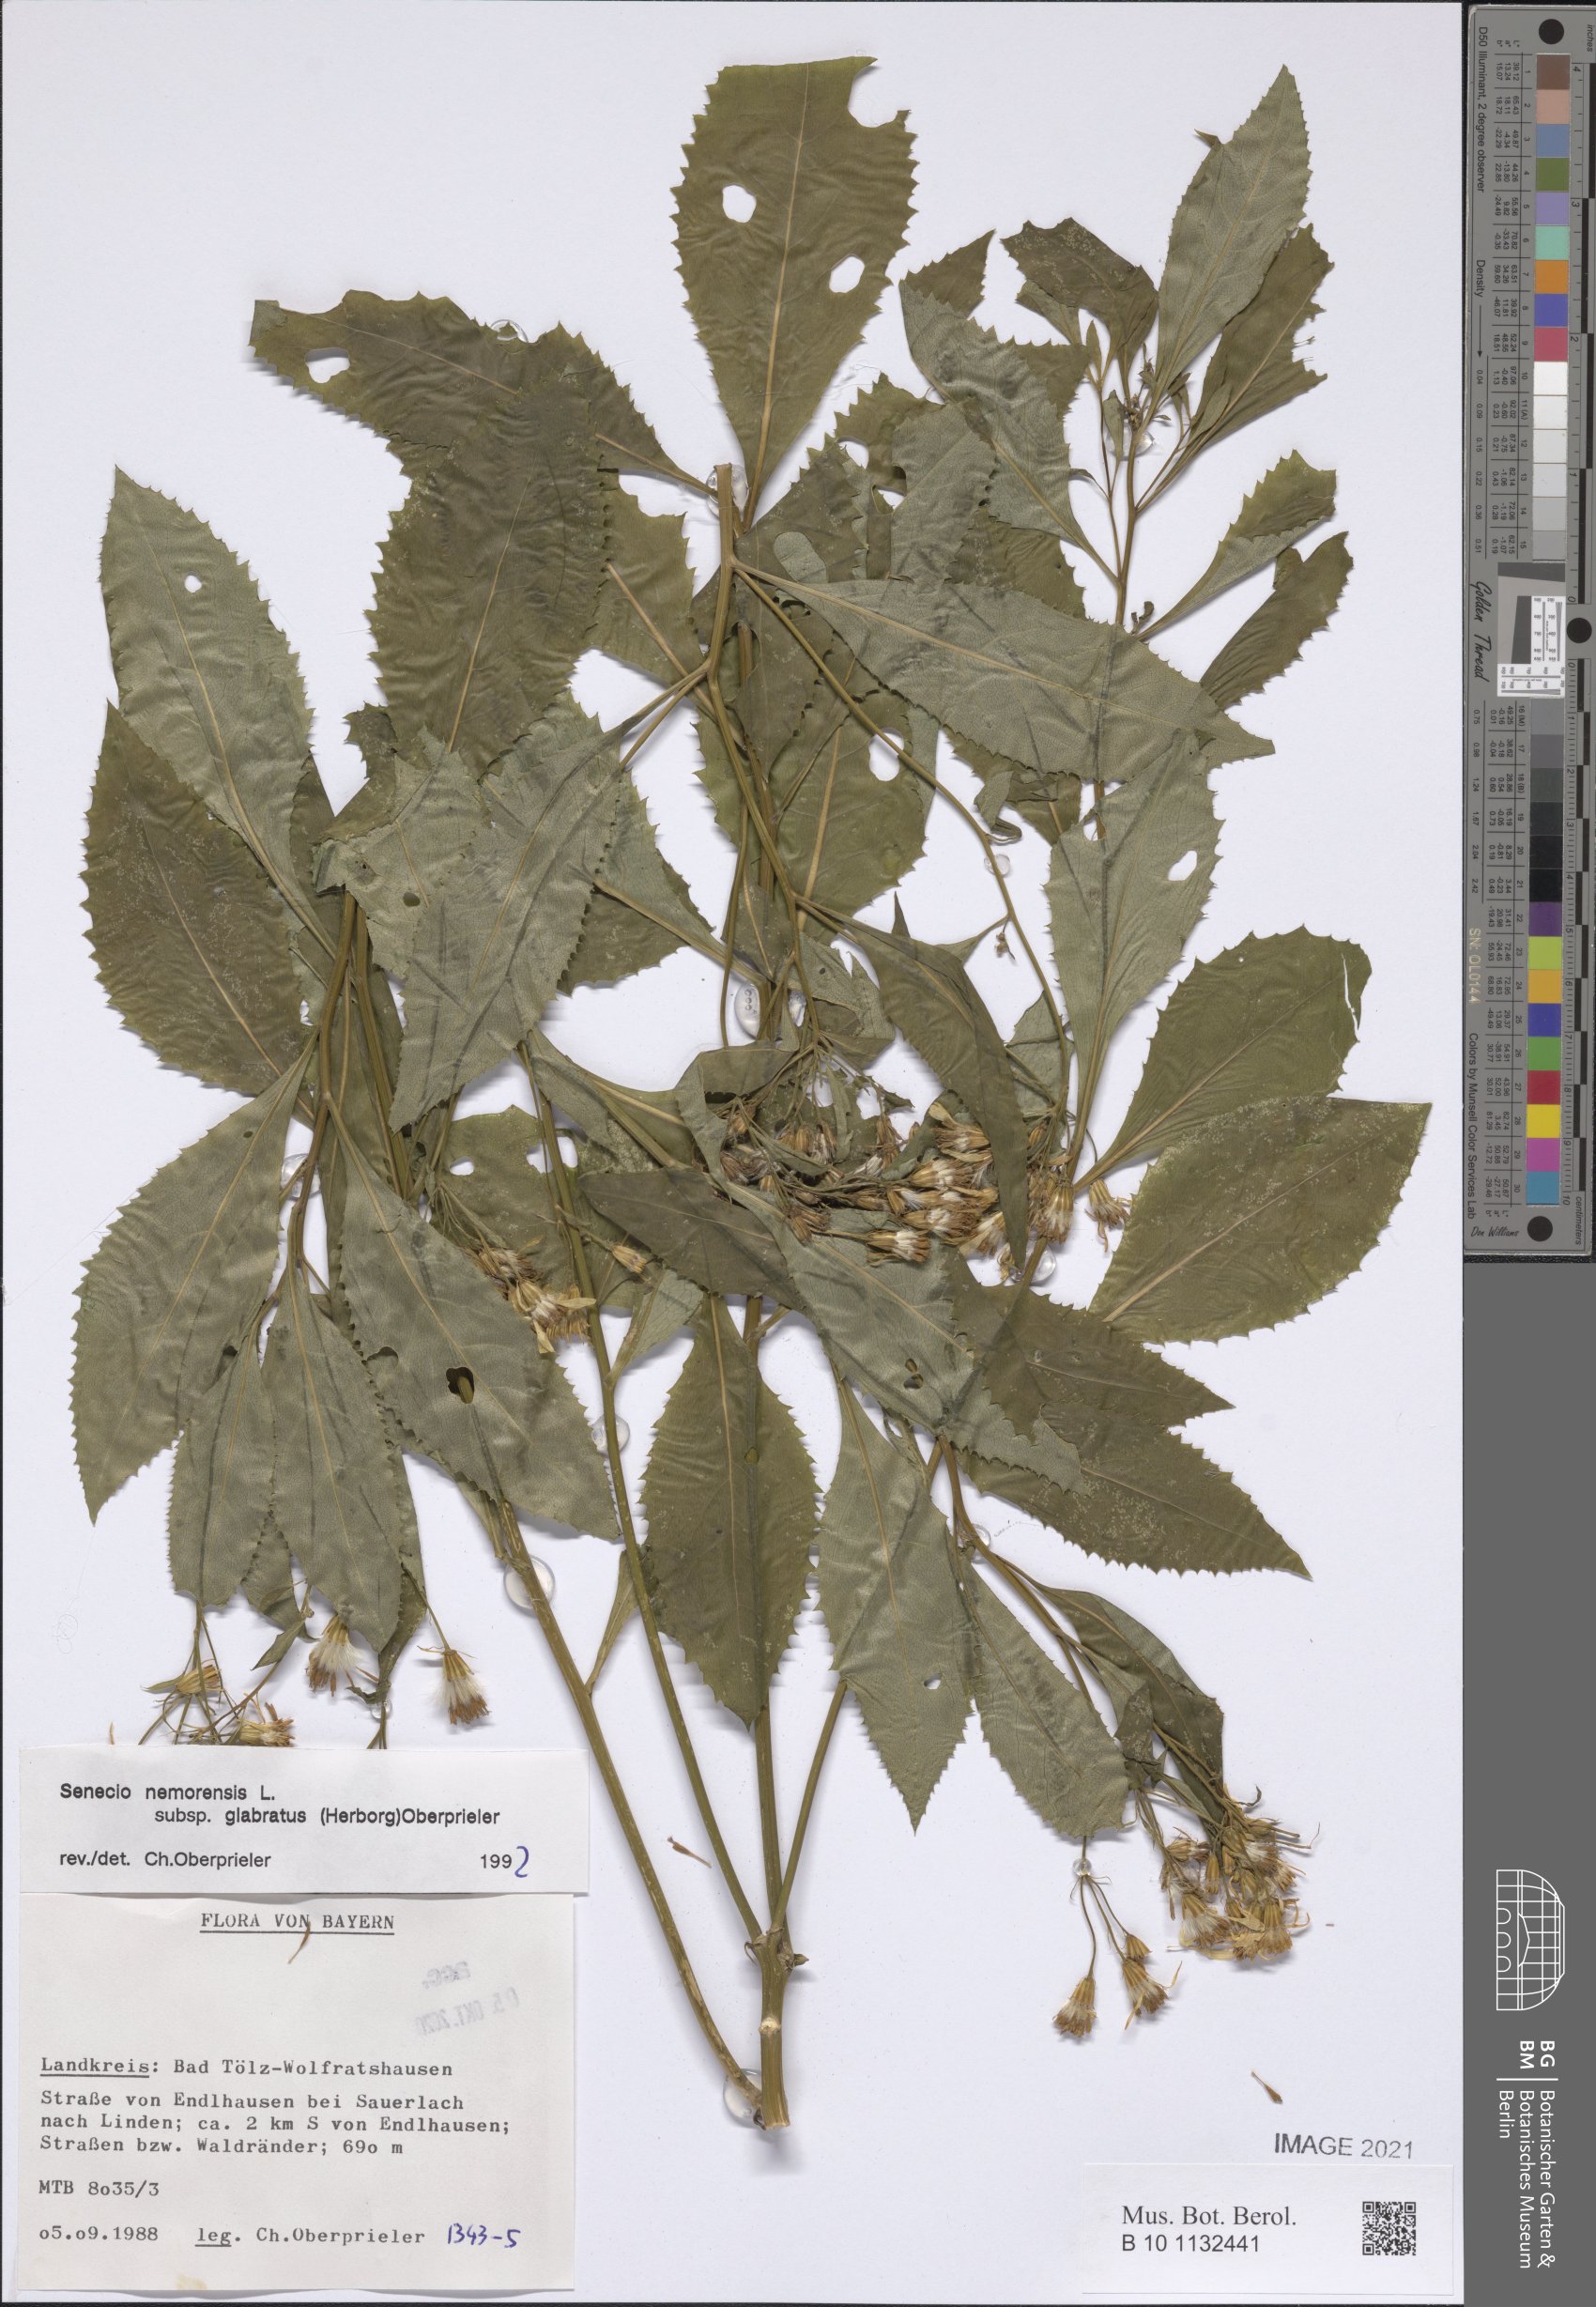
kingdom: Plantae
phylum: Tracheophyta
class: Magnoliopsida
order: Asterales
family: Asteraceae
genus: Senecio
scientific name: Senecio germanicus
